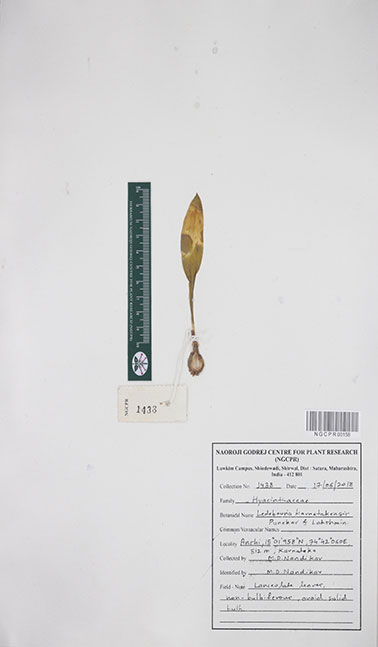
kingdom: Plantae
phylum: Tracheophyta
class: Liliopsida
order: Asparagales
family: Asparagaceae
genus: Ledebouria
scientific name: Ledebouria karnatakensis
